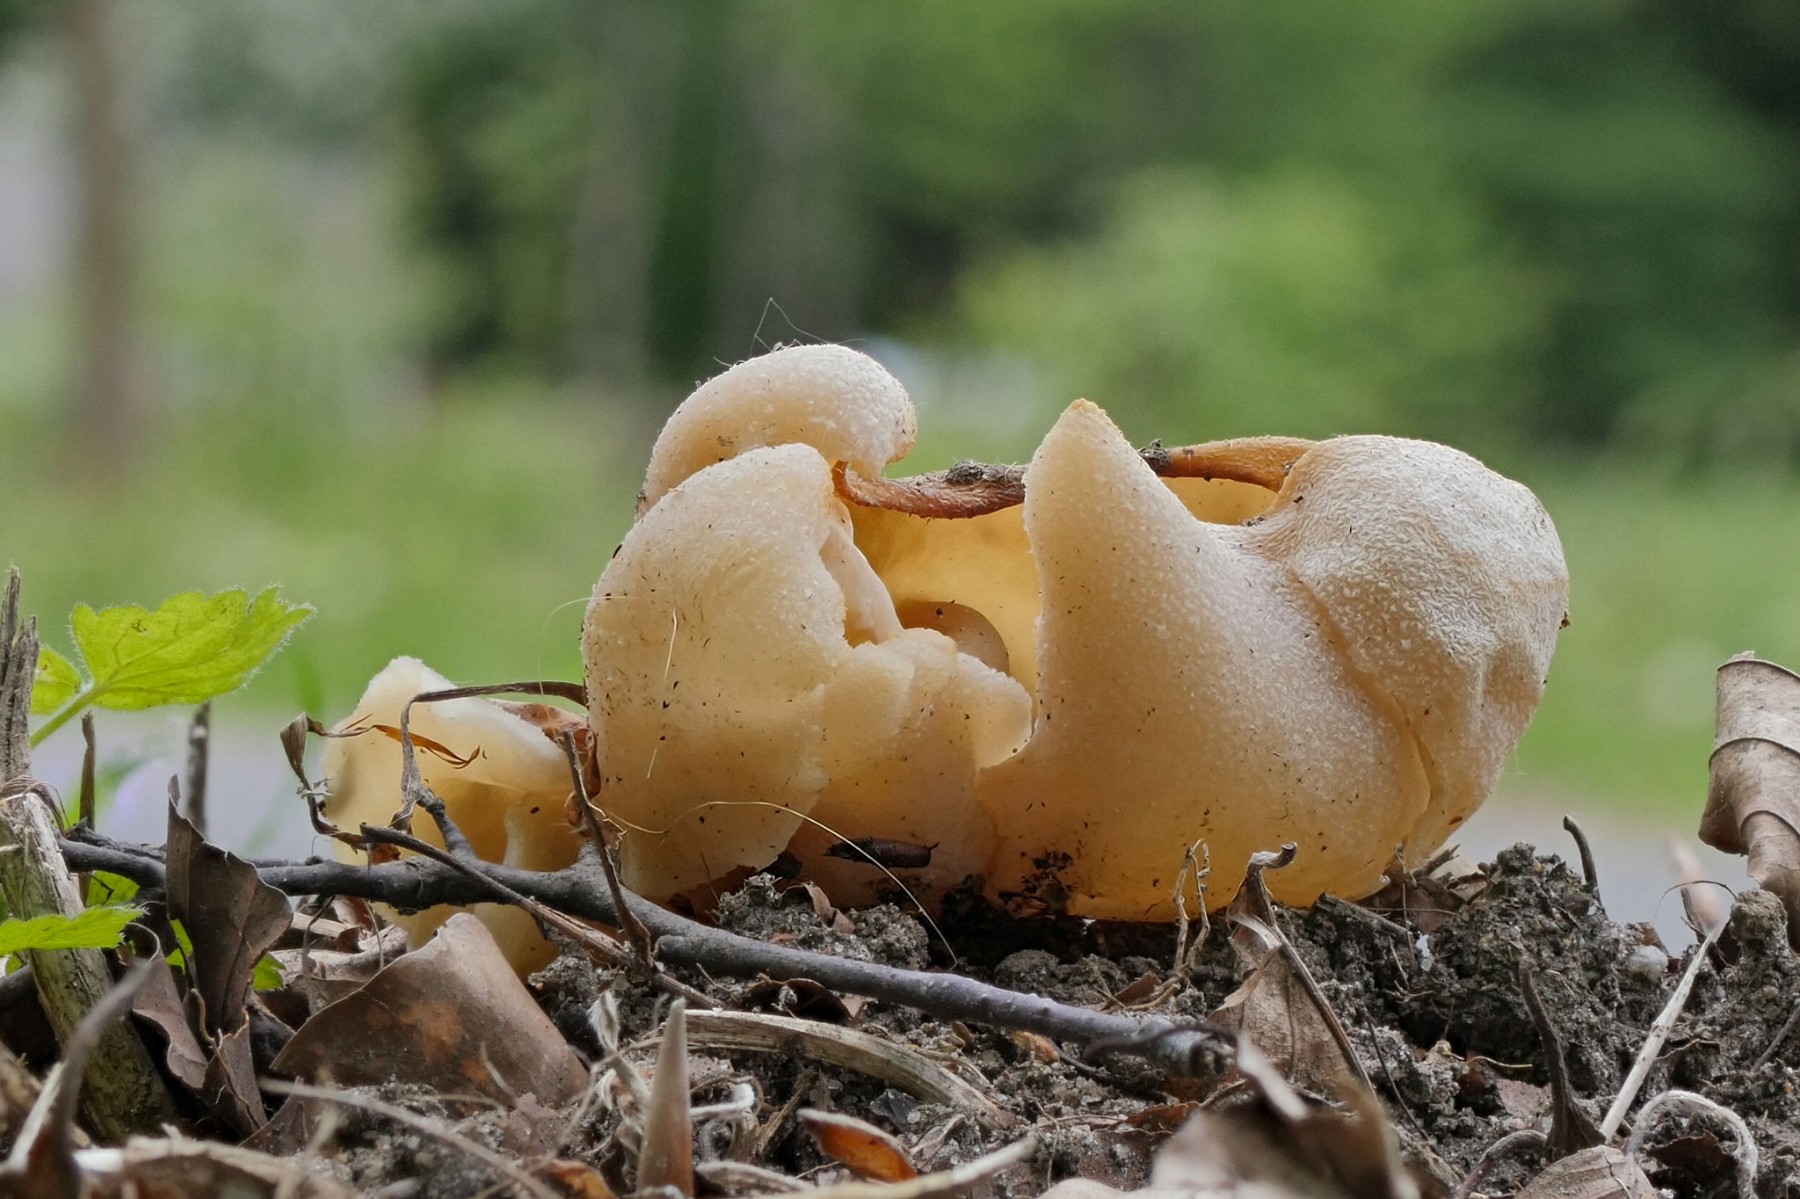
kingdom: Fungi
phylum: Ascomycota
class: Pezizomycetes
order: Pezizales
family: Pezizaceae
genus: Peziza
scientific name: Peziza
